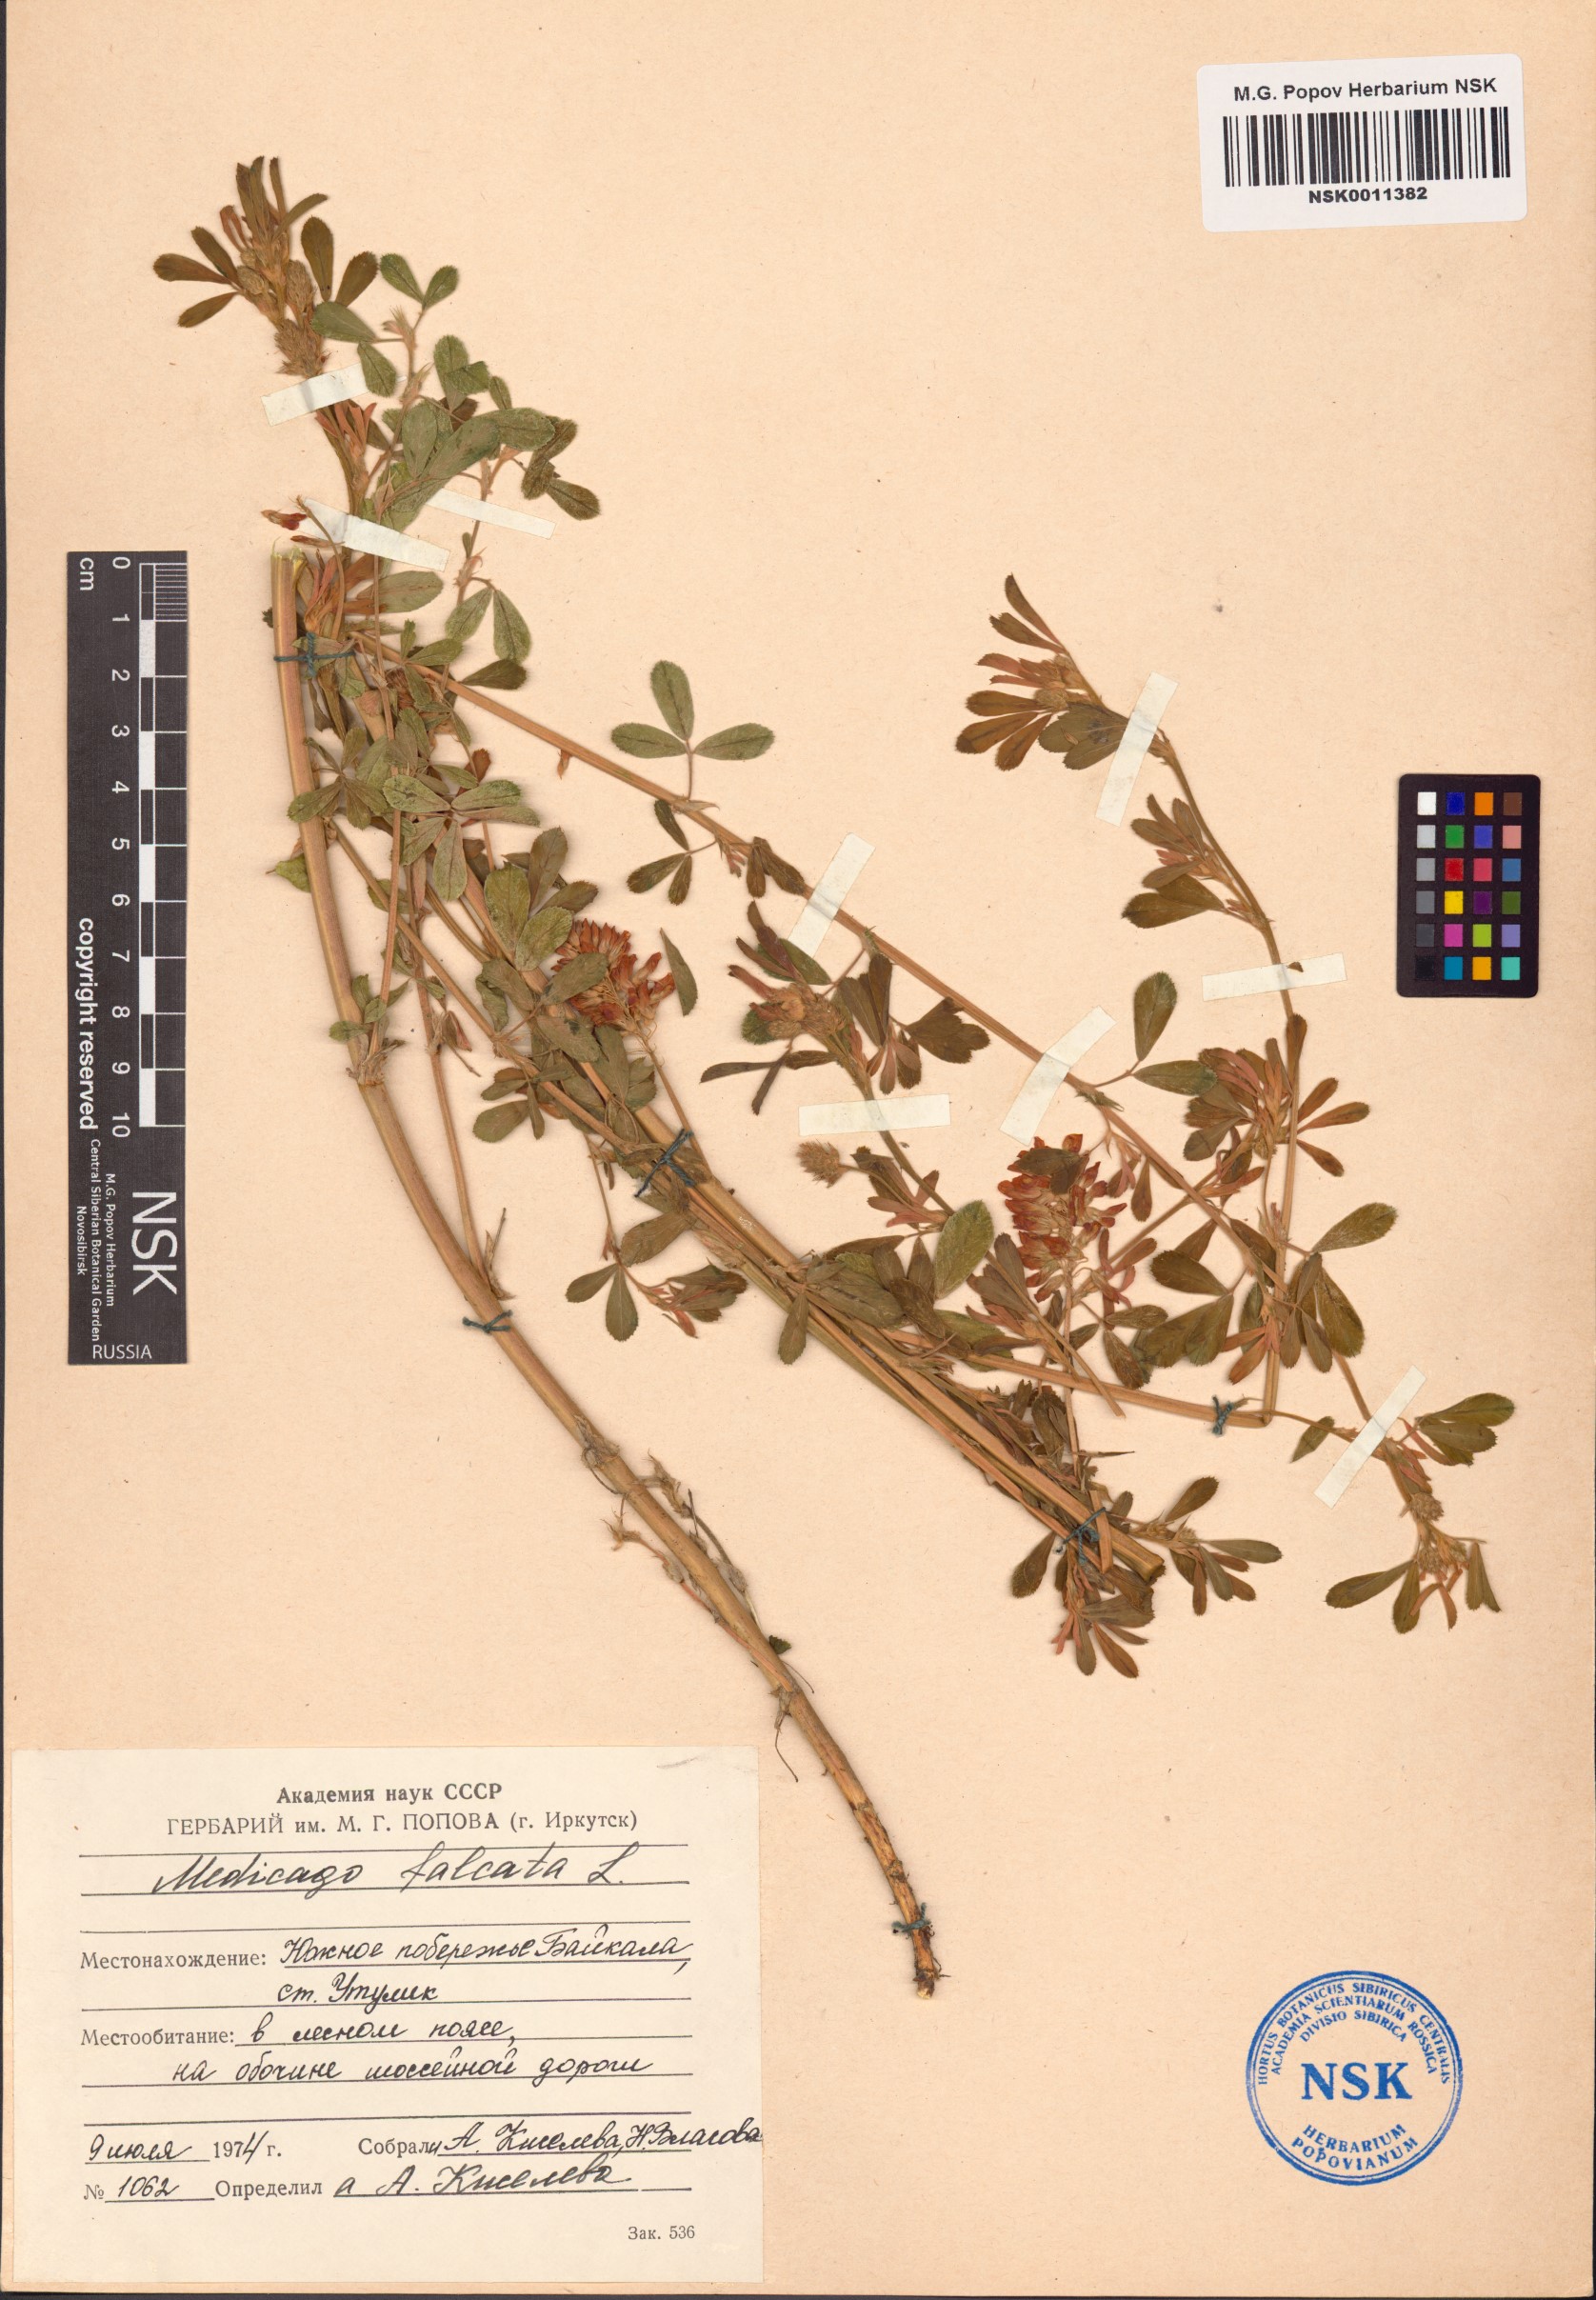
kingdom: Plantae
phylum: Tracheophyta
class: Magnoliopsida
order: Fabales
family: Fabaceae
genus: Medicago
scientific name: Medicago falcata
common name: Sickle medick
